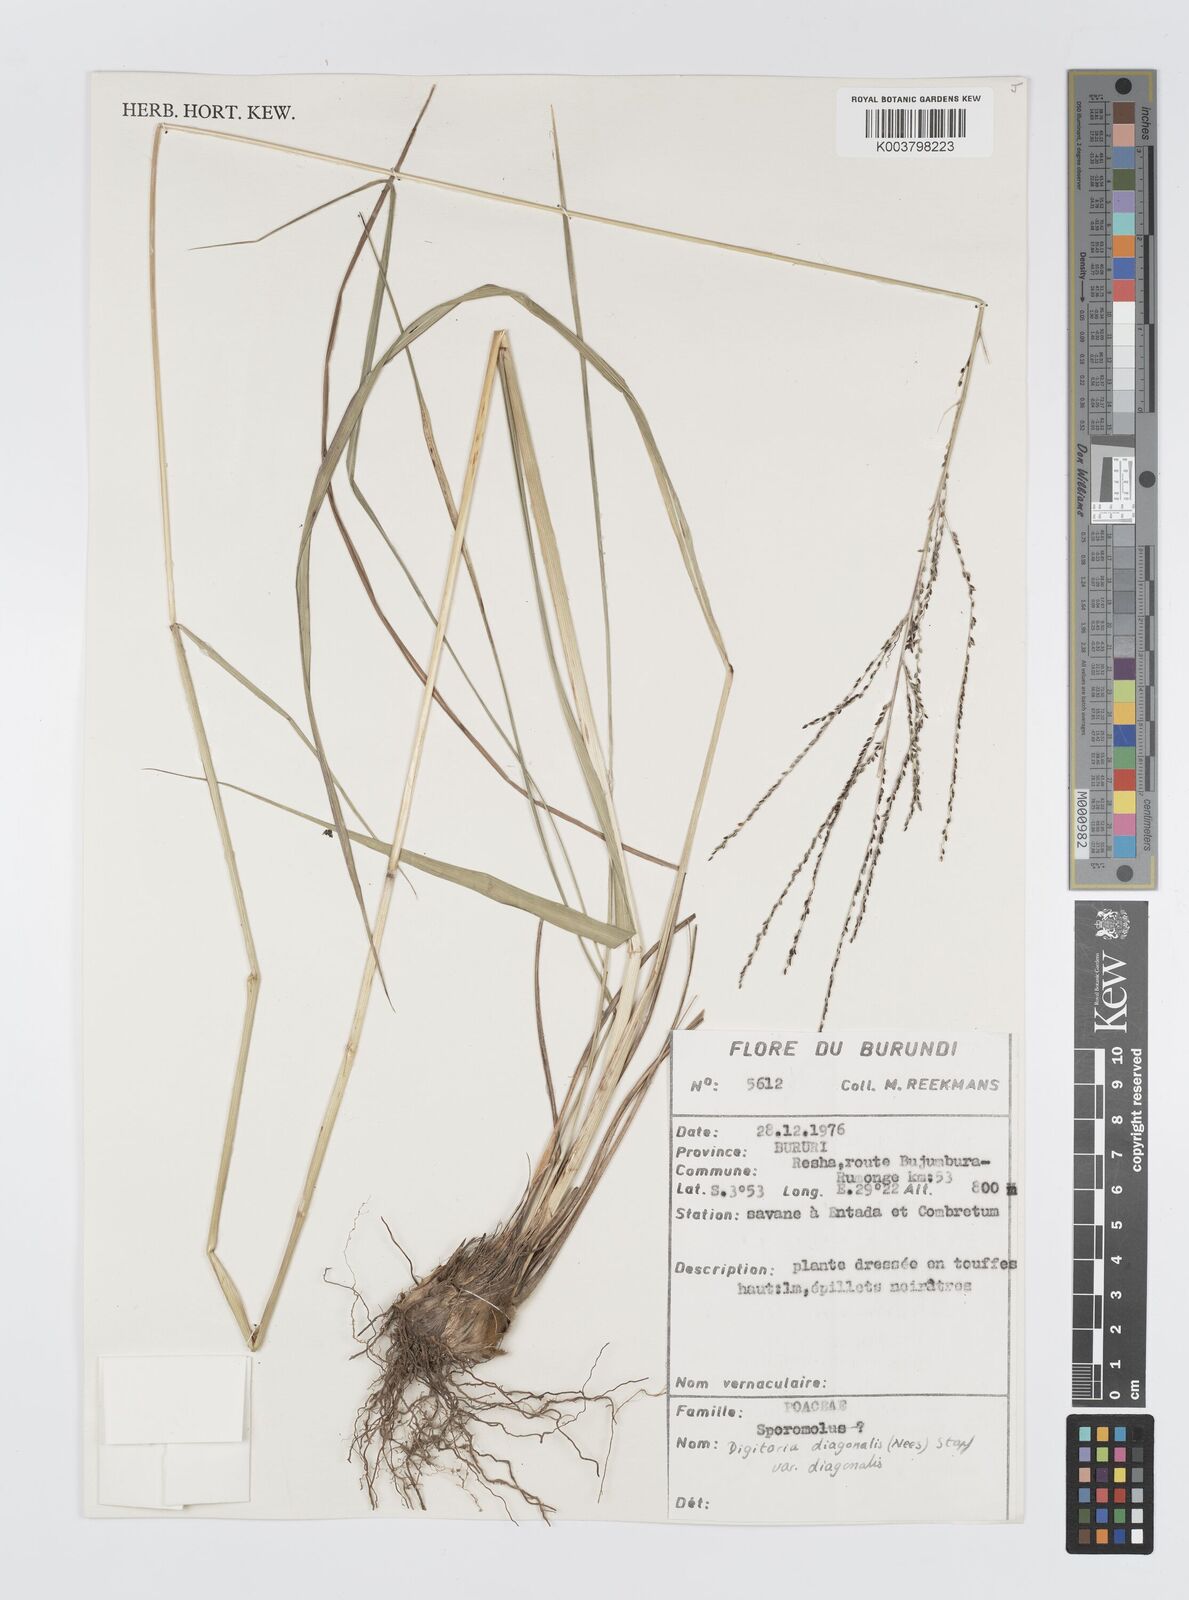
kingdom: Plantae
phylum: Tracheophyta
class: Liliopsida
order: Poales
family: Poaceae
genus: Digitaria
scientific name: Digitaria diagonalis
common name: Brown-seed finger grass
